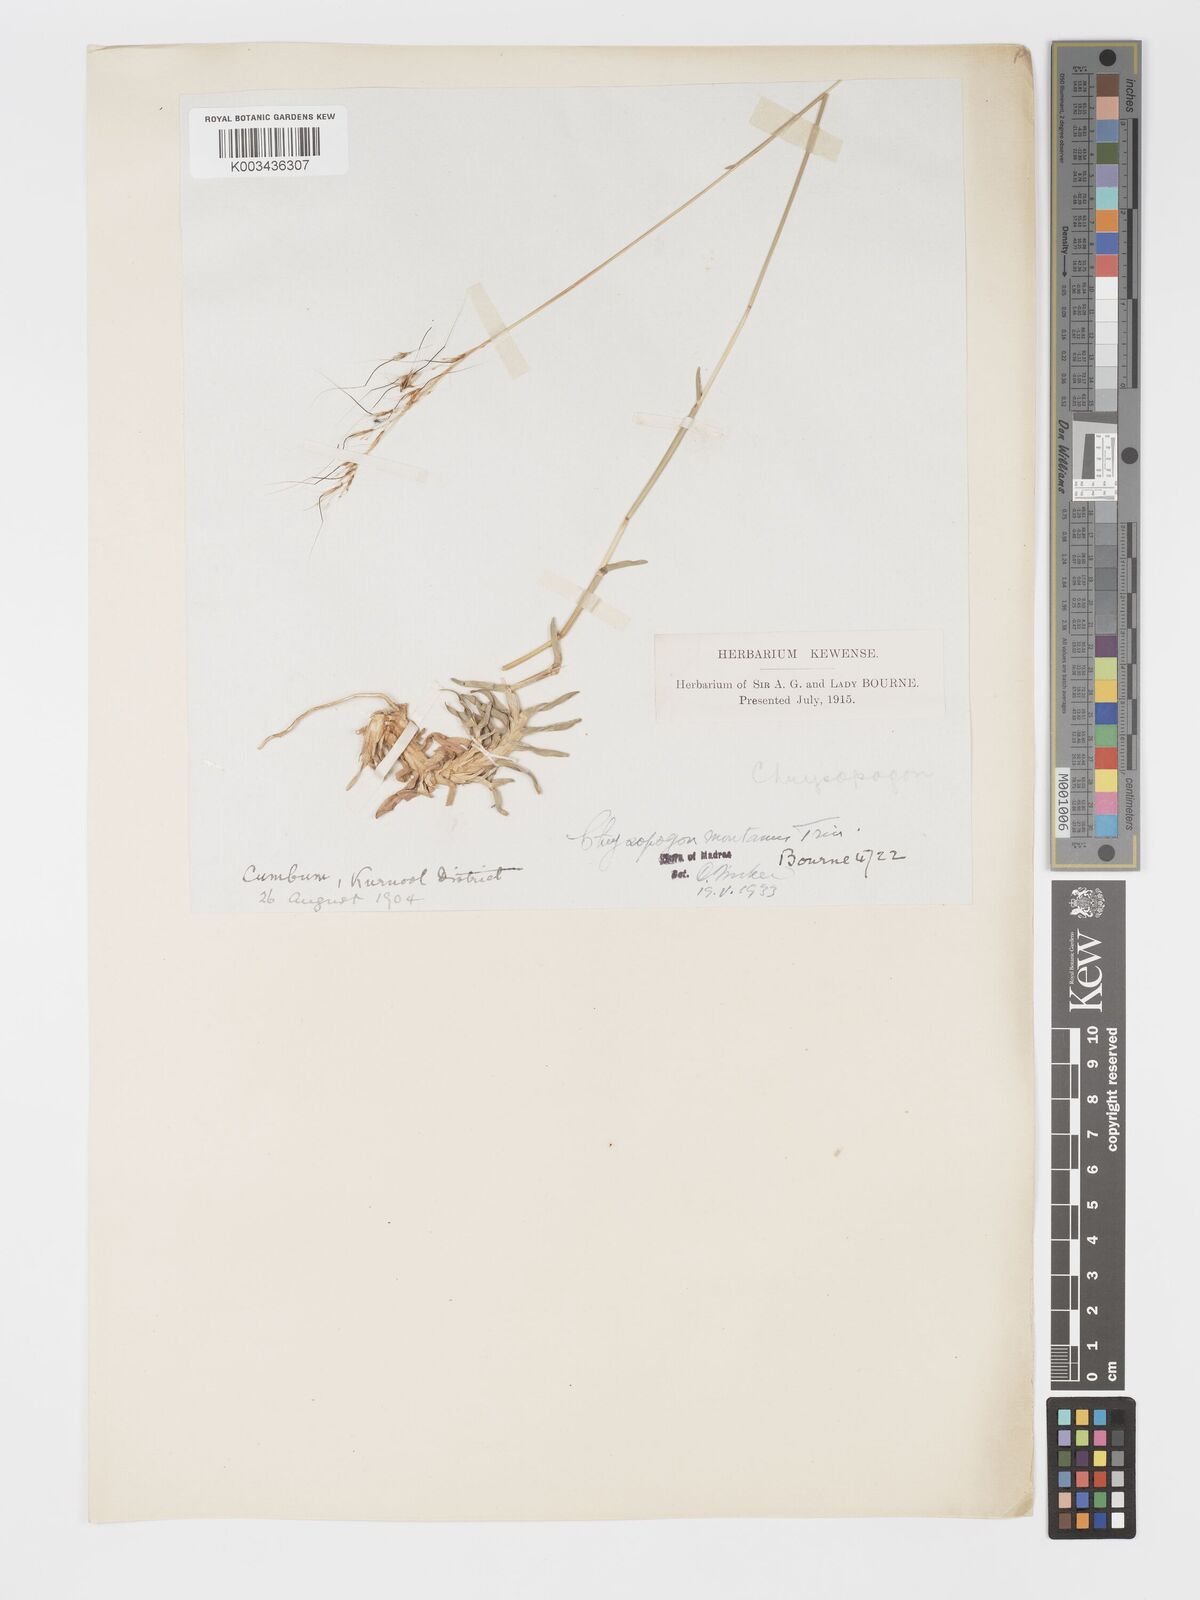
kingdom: Plantae
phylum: Tracheophyta
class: Liliopsida
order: Poales
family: Poaceae
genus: Chrysopogon
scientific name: Chrysopogon fulvus
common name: Red false beardgrass
